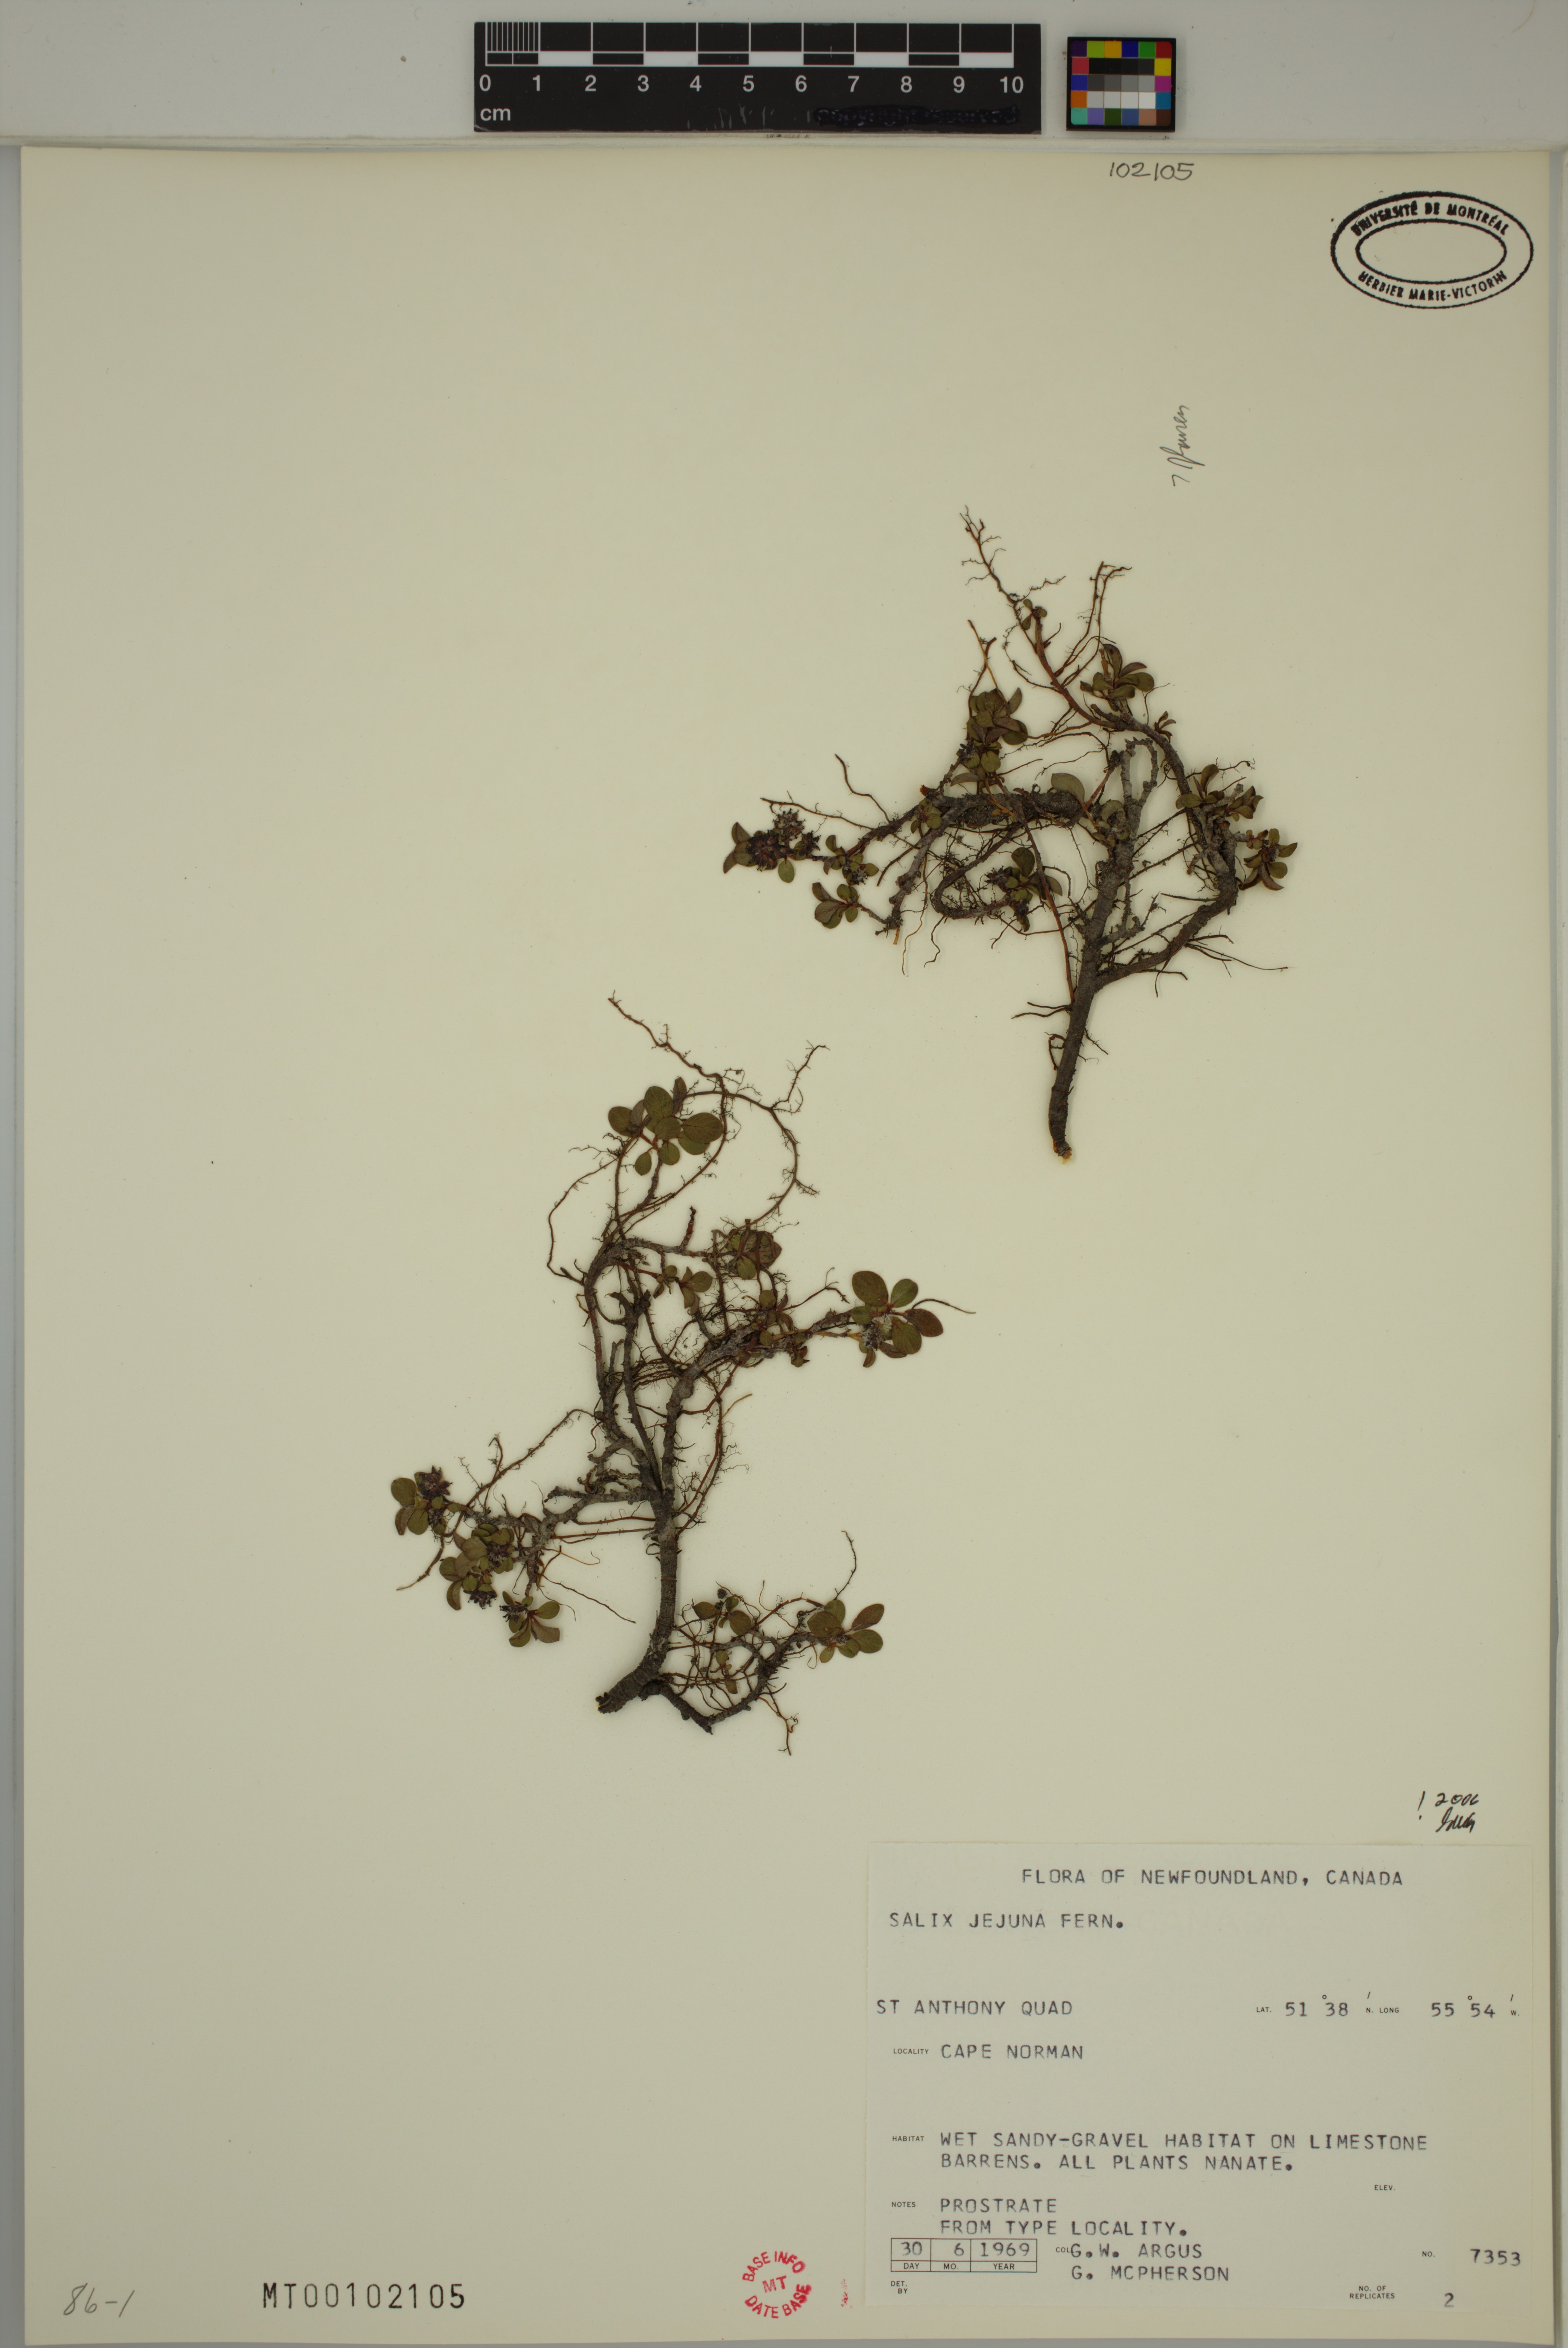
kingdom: Plantae
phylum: Tracheophyta
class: Magnoliopsida
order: Malpighiales
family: Salicaceae
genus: Salix
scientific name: Salix jejuna
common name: Belle isle dwarf willow
